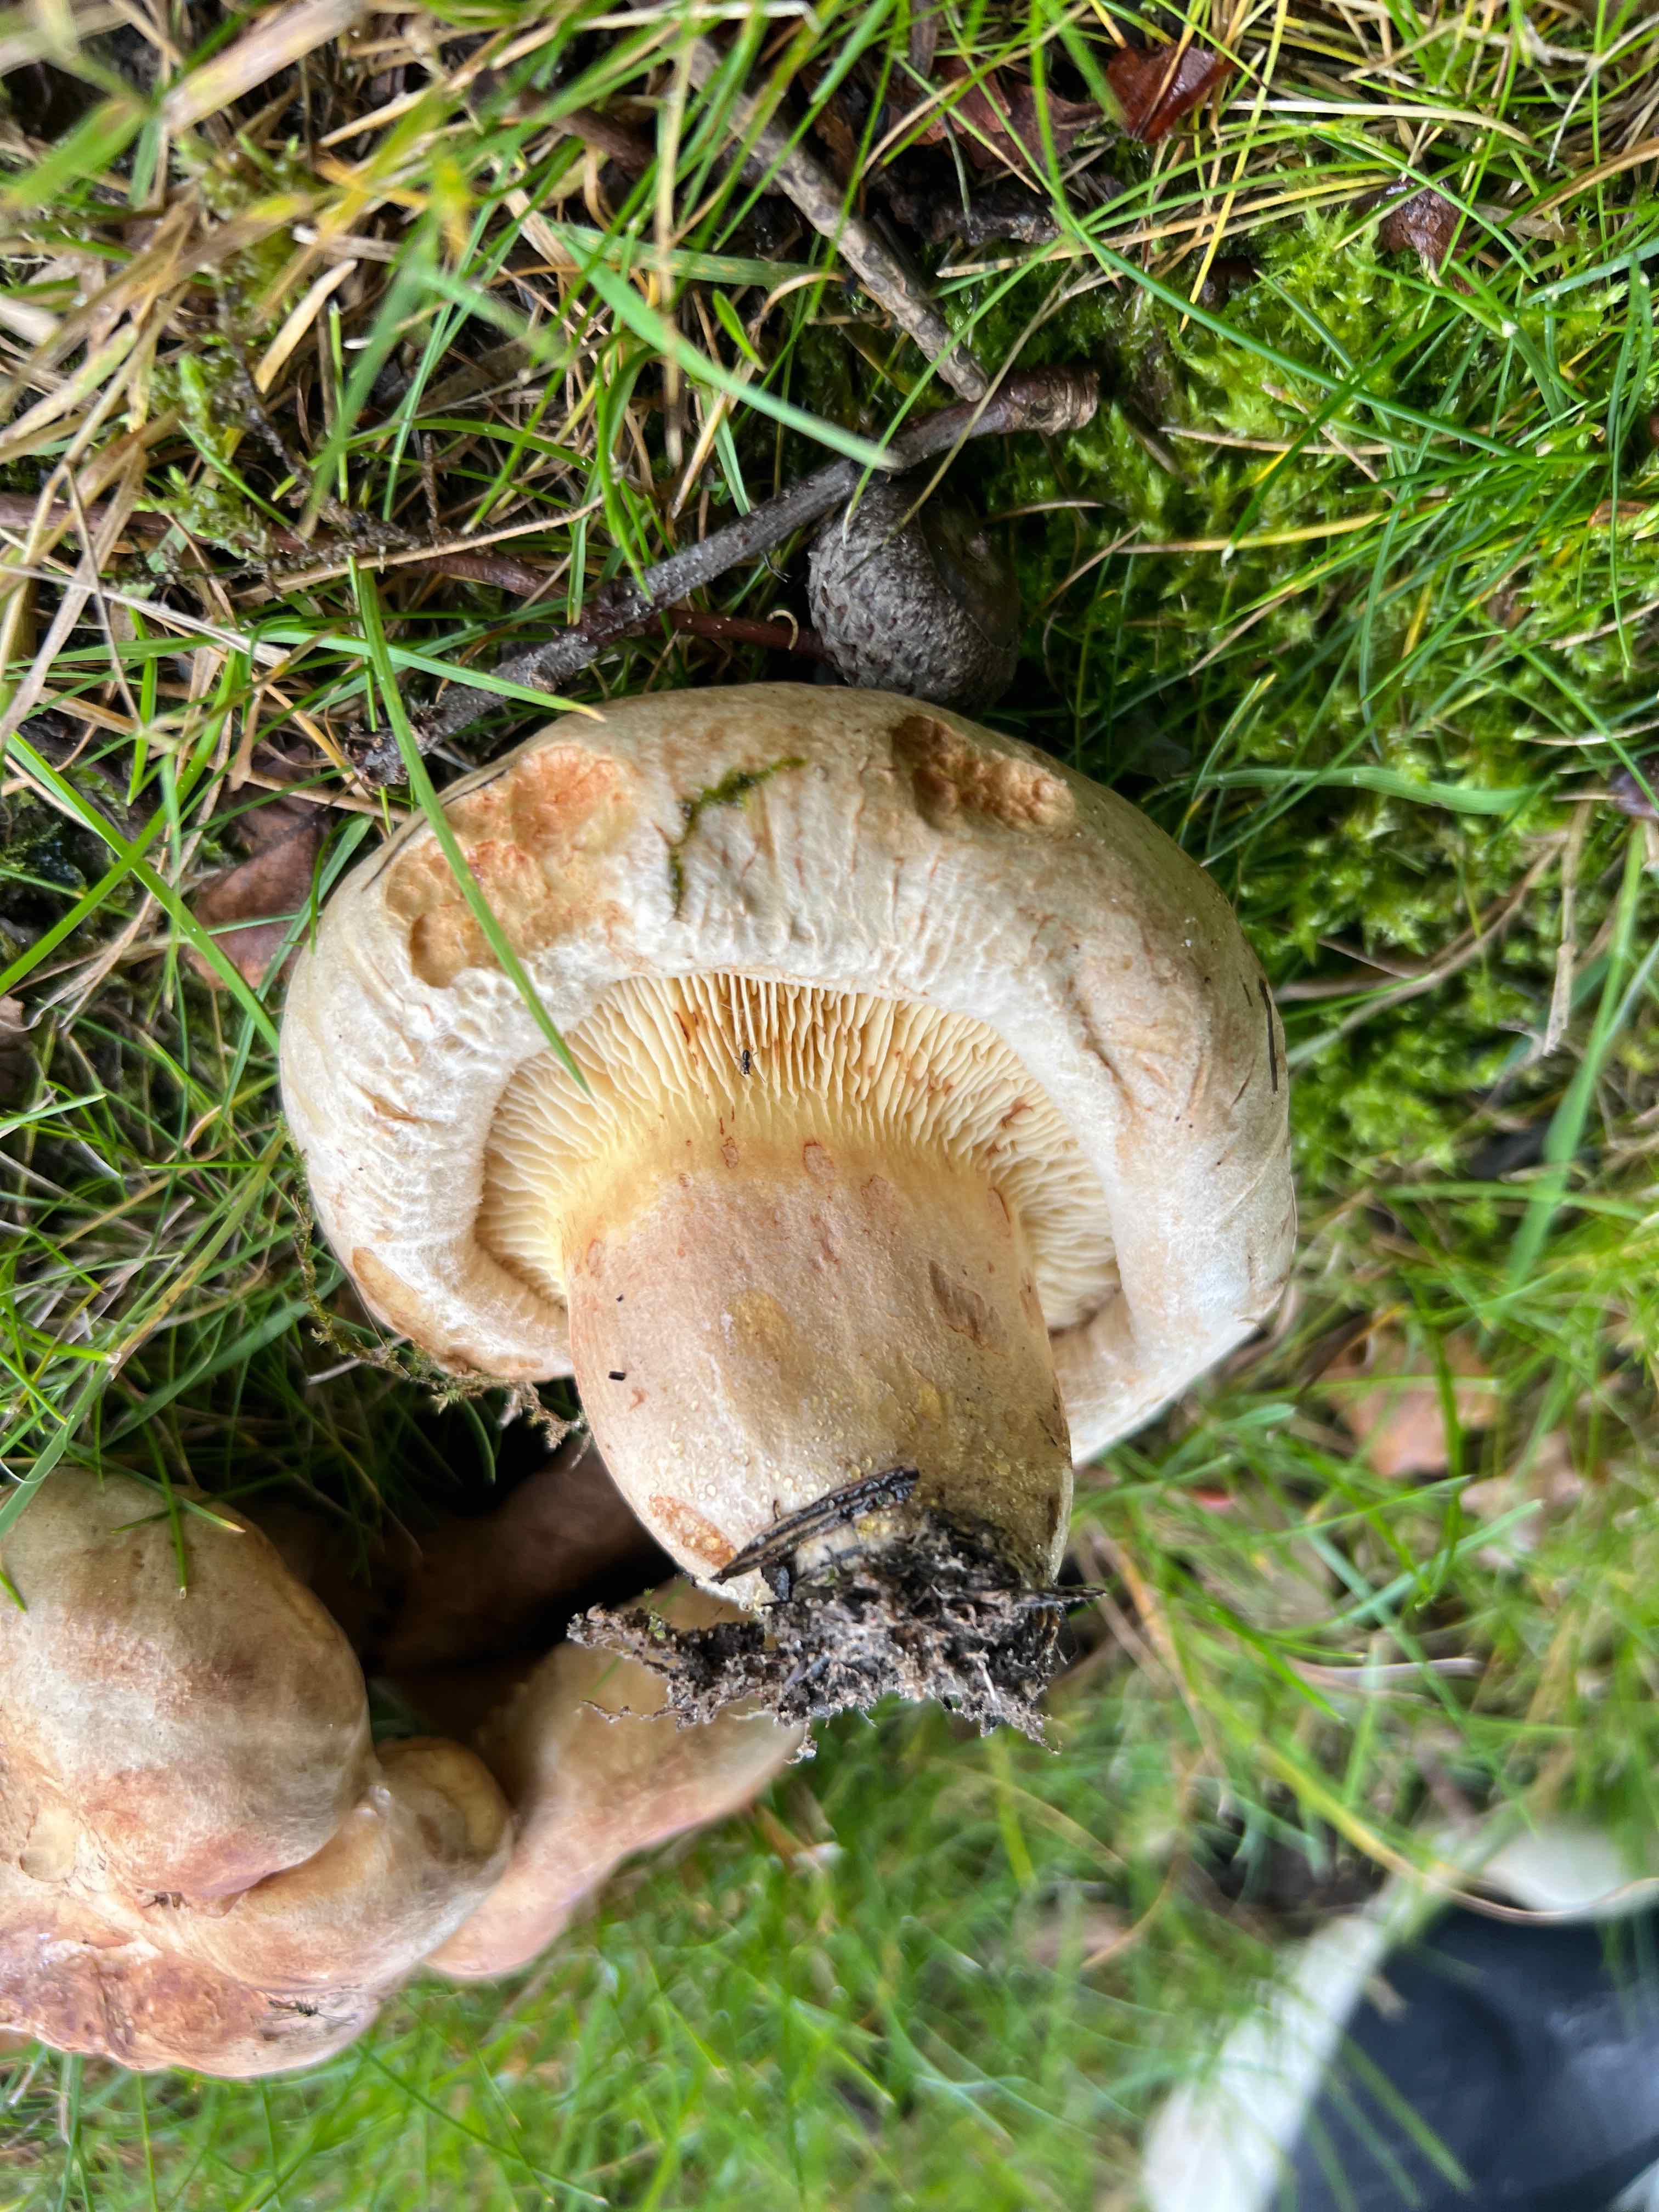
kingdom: Fungi
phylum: Basidiomycota
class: Agaricomycetes
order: Boletales
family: Paxillaceae
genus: Paxillus
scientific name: Paxillus
